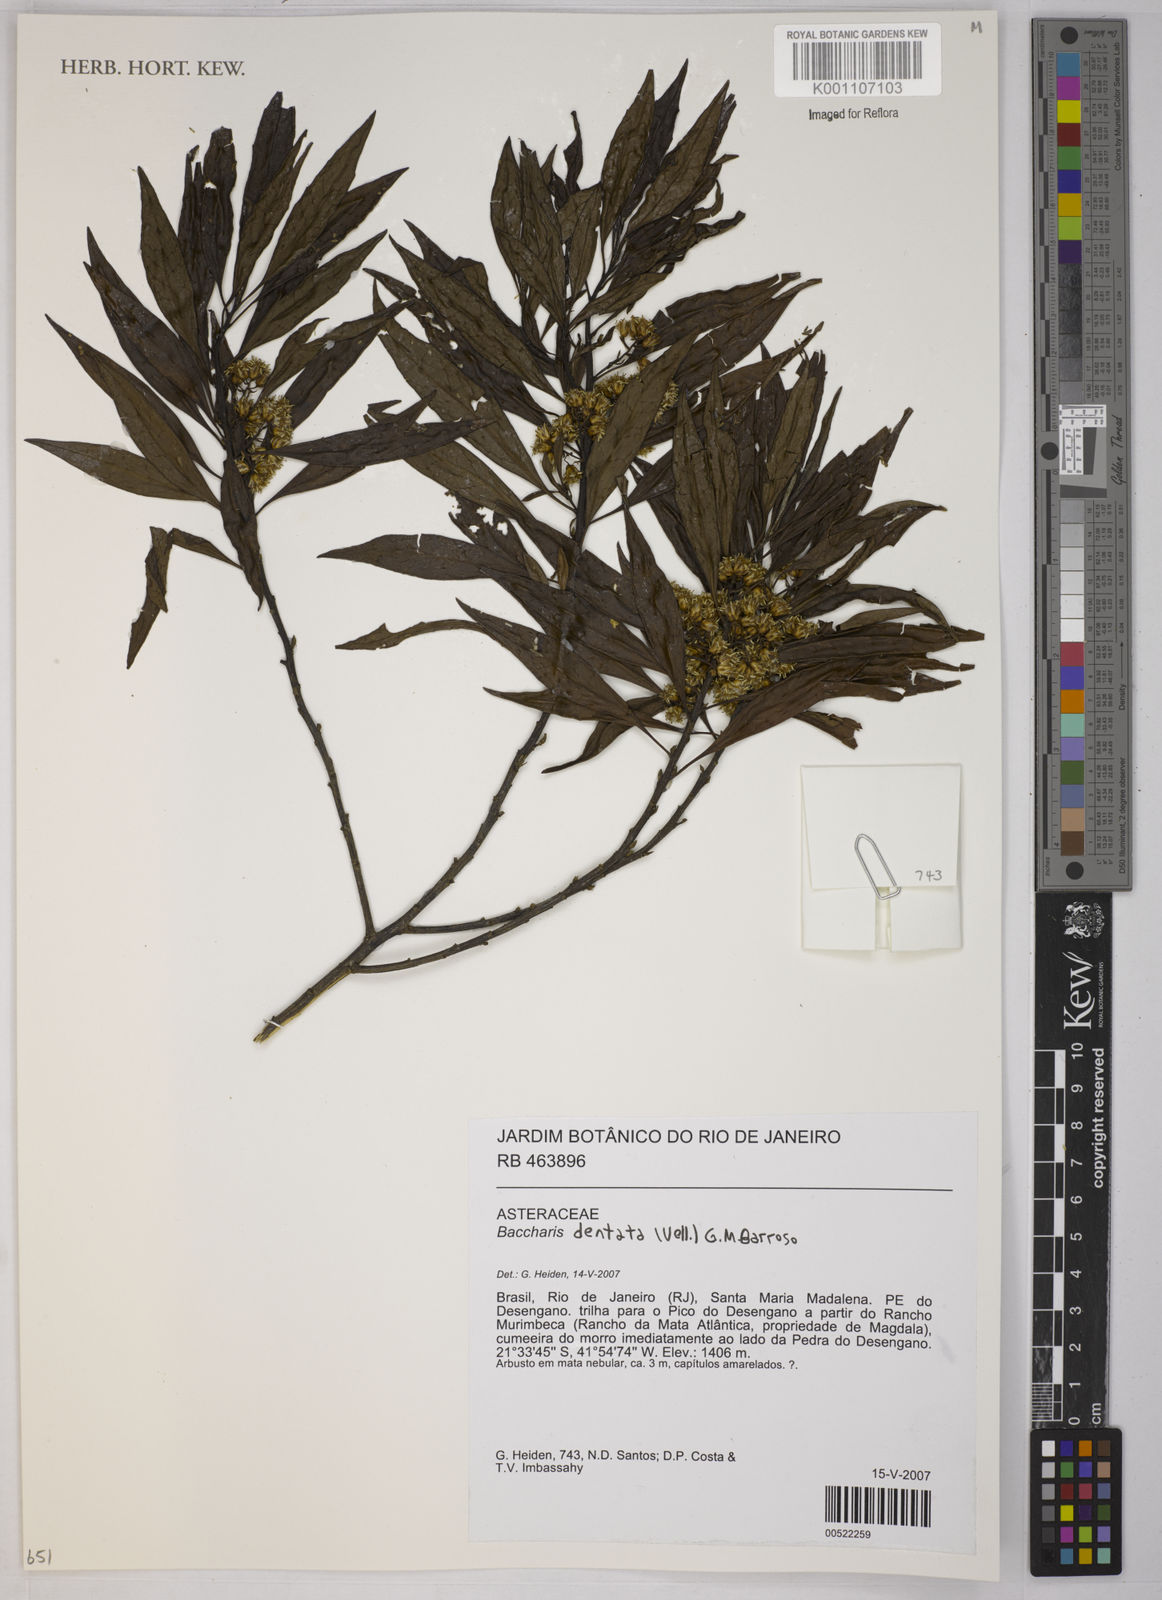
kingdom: Plantae
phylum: Tracheophyta
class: Magnoliopsida
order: Asterales
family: Asteraceae
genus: Baccharis
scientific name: Baccharis dentata
